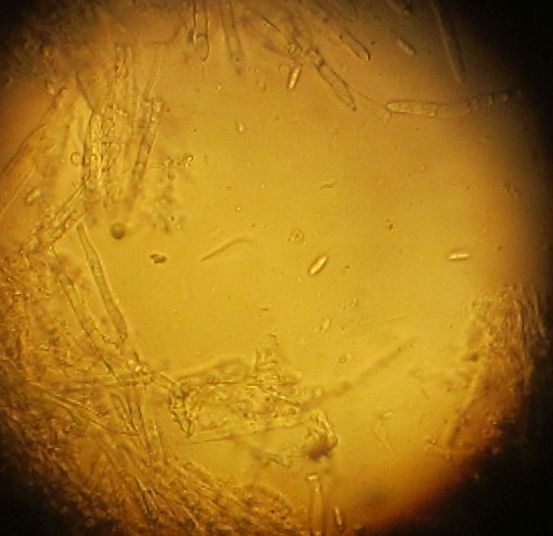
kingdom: Fungi
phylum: Ascomycota
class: Leotiomycetes
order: Helotiales
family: Lachnaceae
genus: Lachnum
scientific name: Lachnum impudicum
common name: vinter-frynseskive
